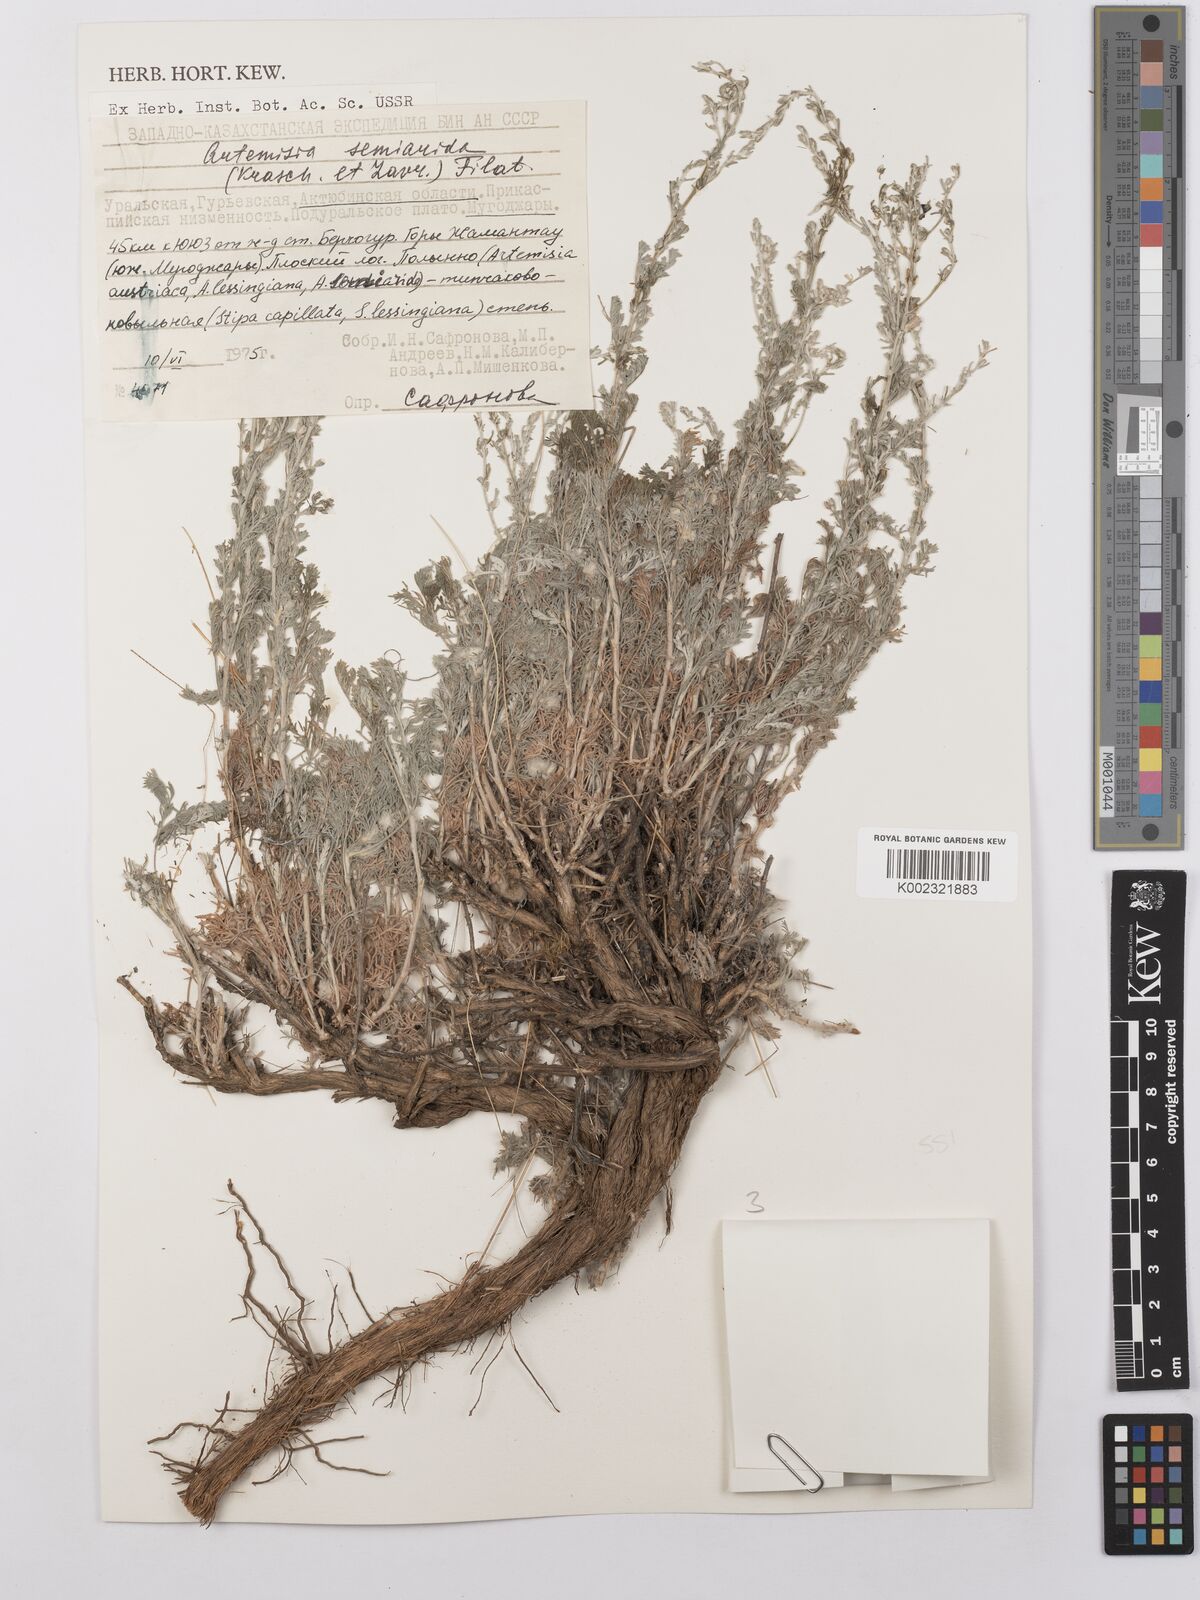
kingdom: Plantae
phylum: Tracheophyta
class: Magnoliopsida
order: Asterales
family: Asteraceae
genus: Artemisia
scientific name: Artemisia semiarida
